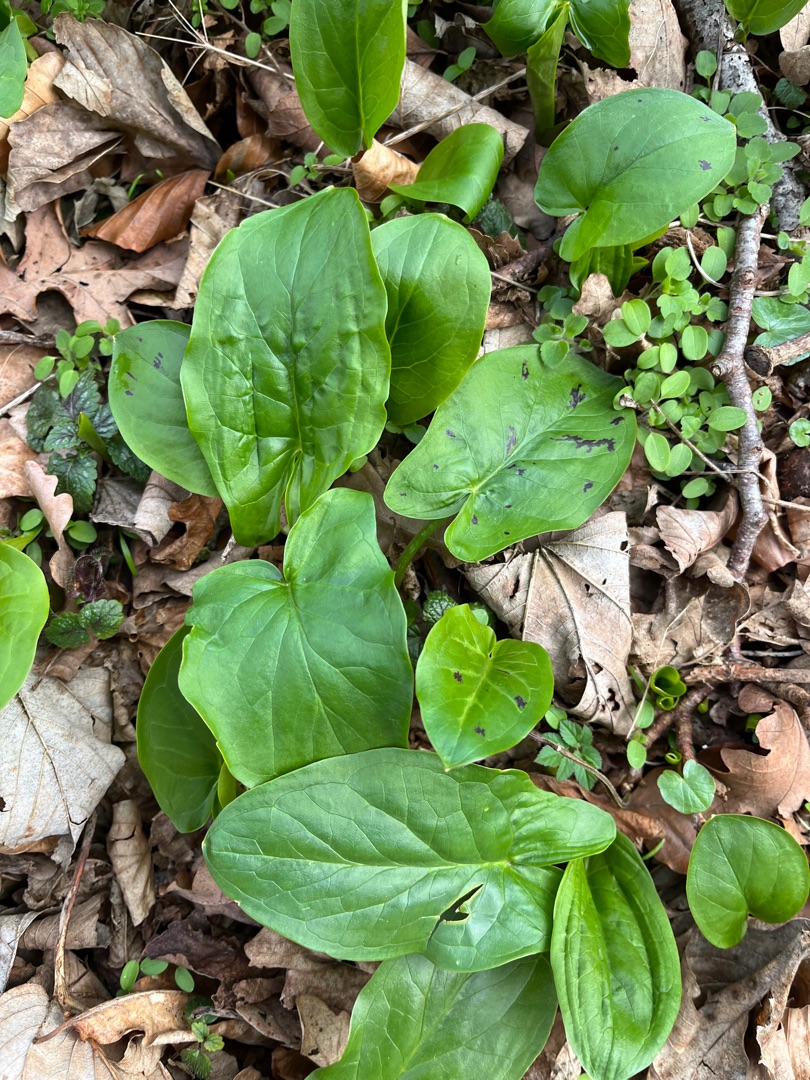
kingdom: Plantae
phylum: Tracheophyta
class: Liliopsida
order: Alismatales
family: Araceae
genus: Arum
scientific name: Arum maculatum
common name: Plettet arum
